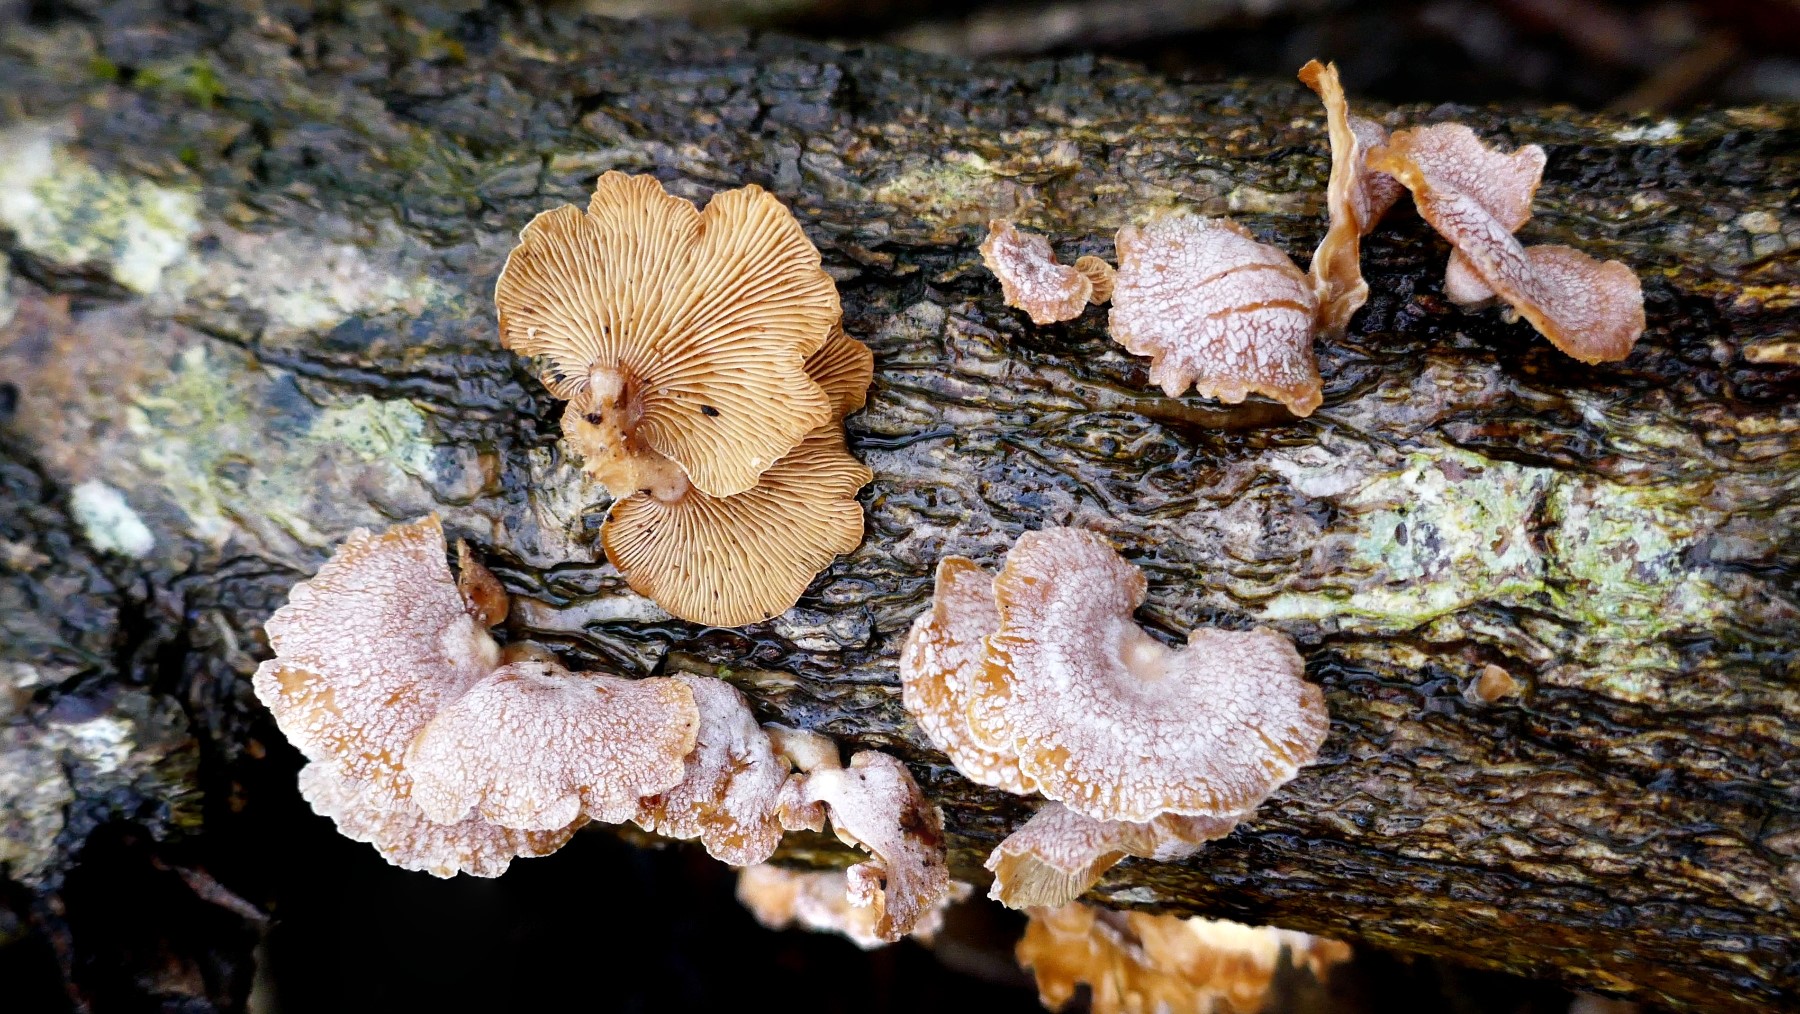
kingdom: Fungi
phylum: Basidiomycota
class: Agaricomycetes
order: Agaricales
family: Mycenaceae
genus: Panellus
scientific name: Panellus stipticus
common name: kliddet epaulethat
